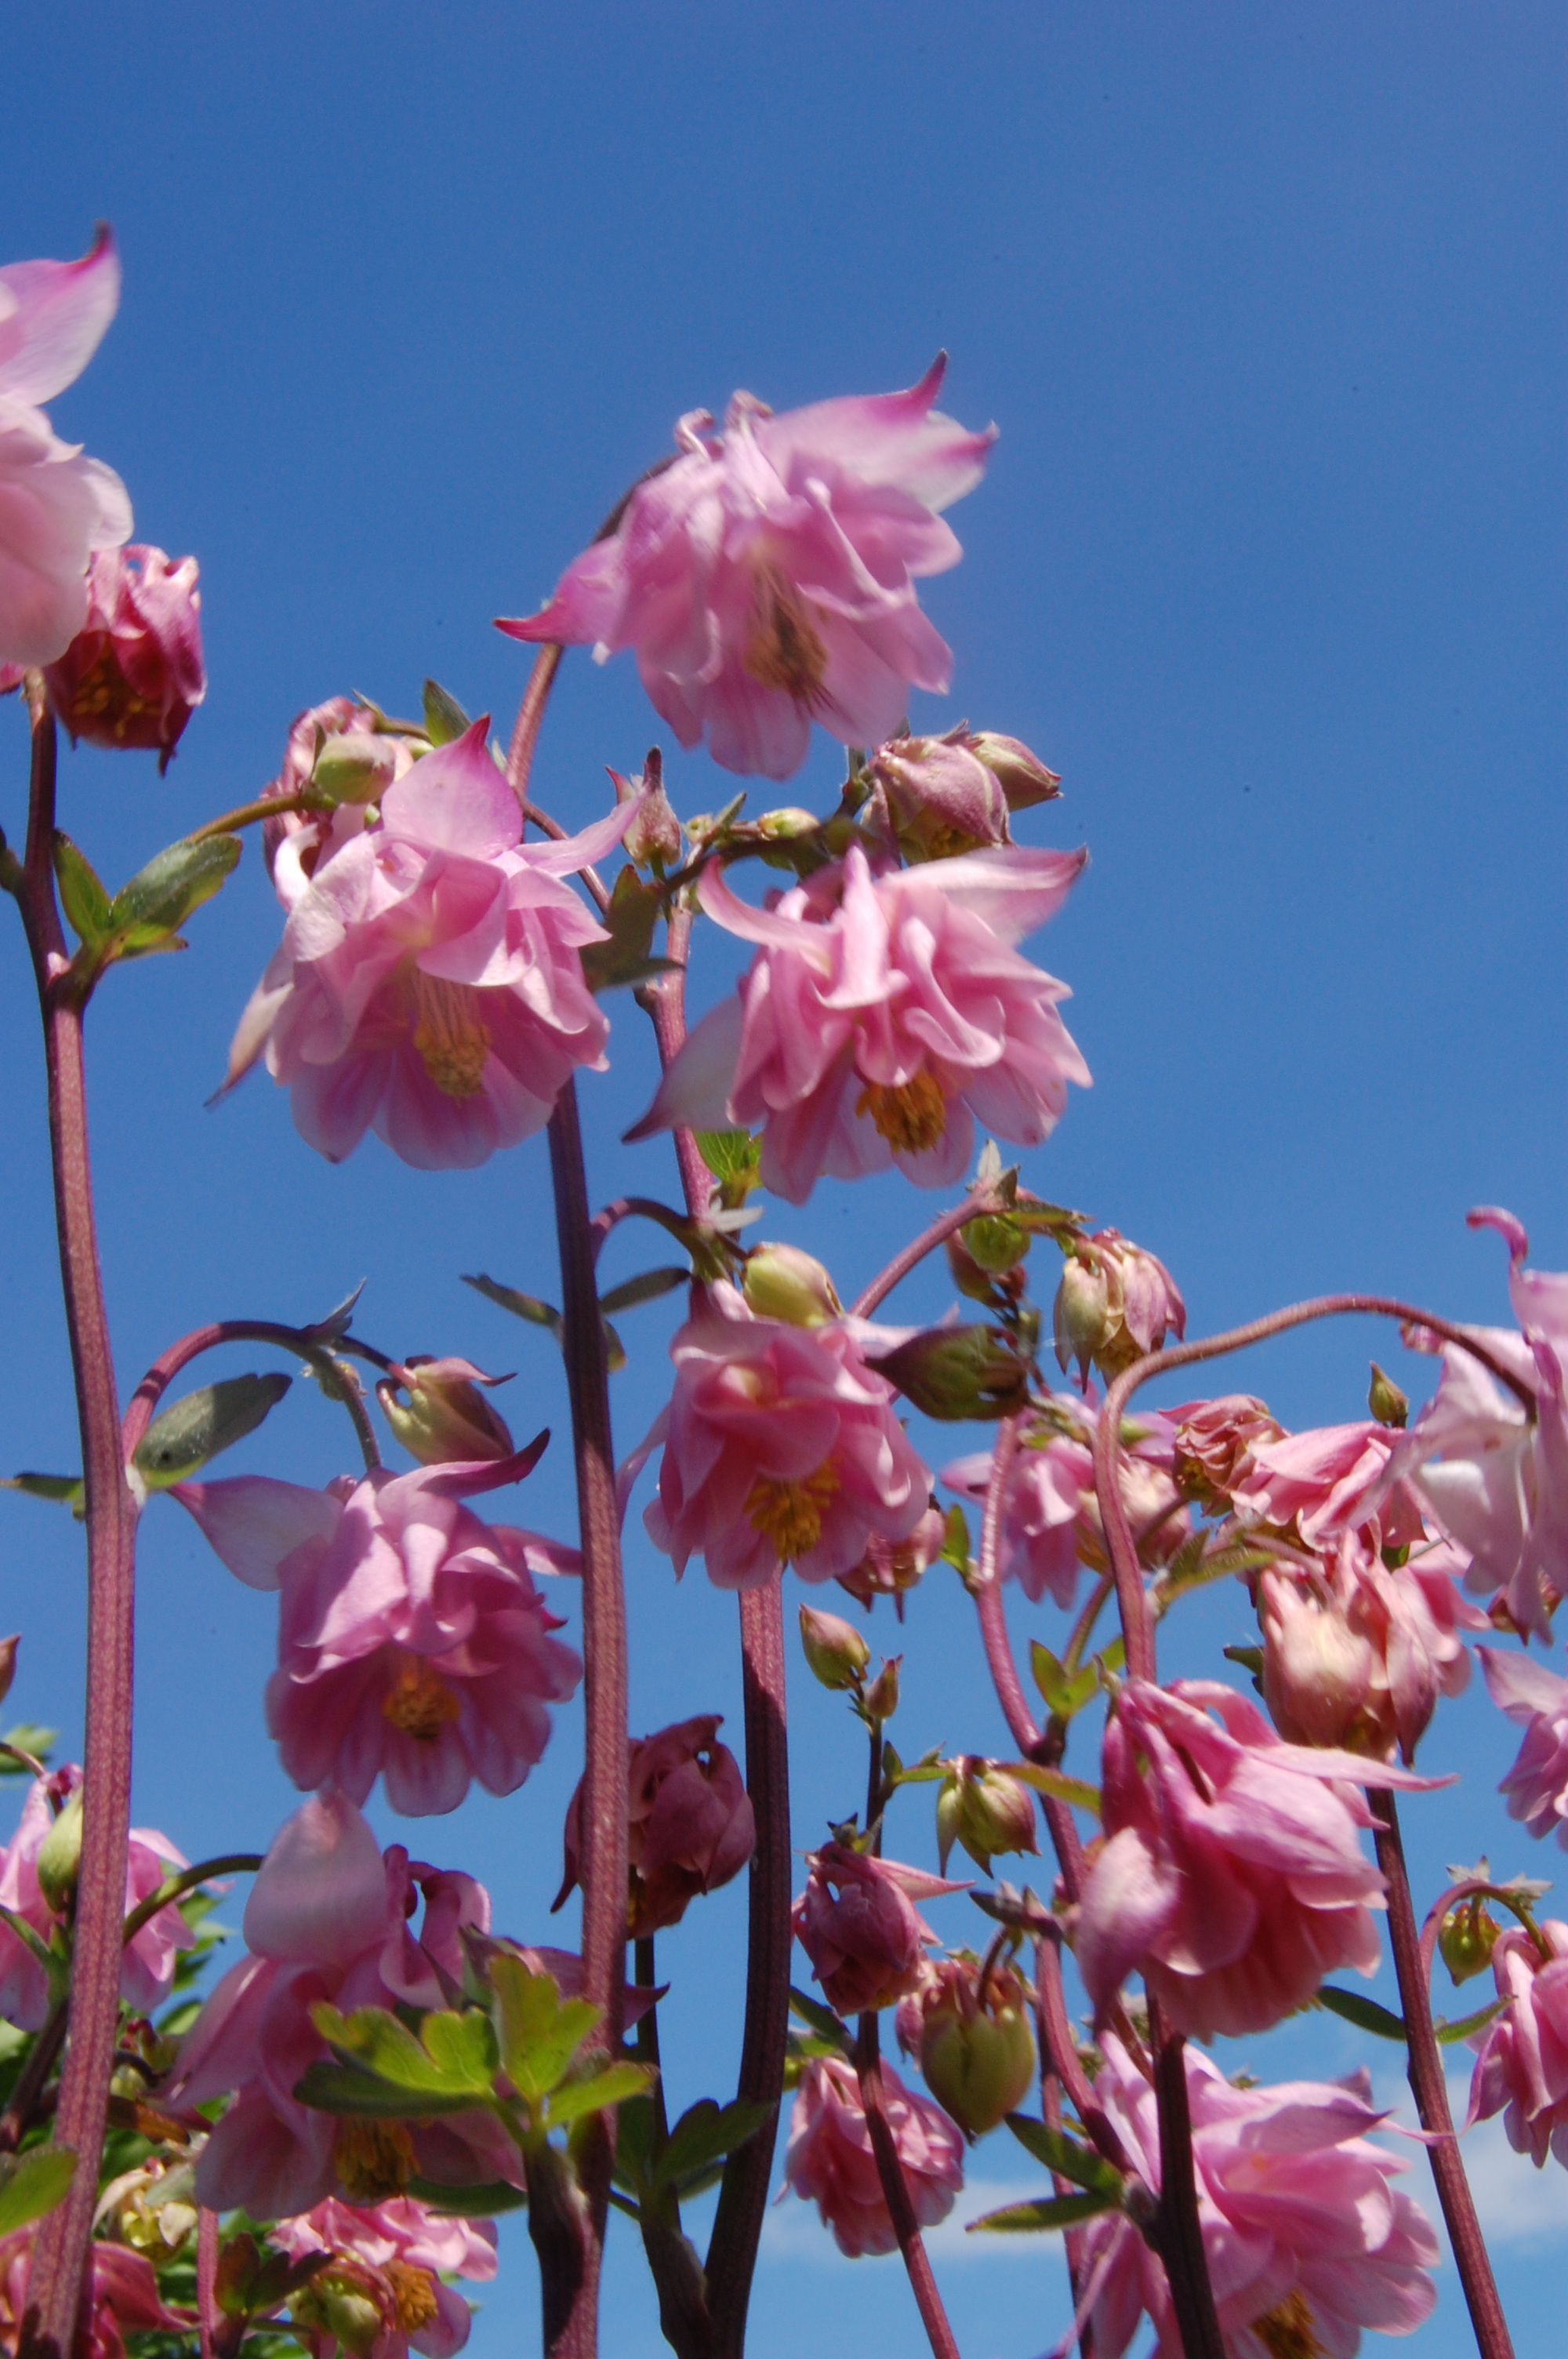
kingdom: Plantae
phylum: Tracheophyta
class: Magnoliopsida
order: Ranunculales
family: Ranunculaceae
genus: Aquilegia
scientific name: Aquilegia vulgaris
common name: Columbine
